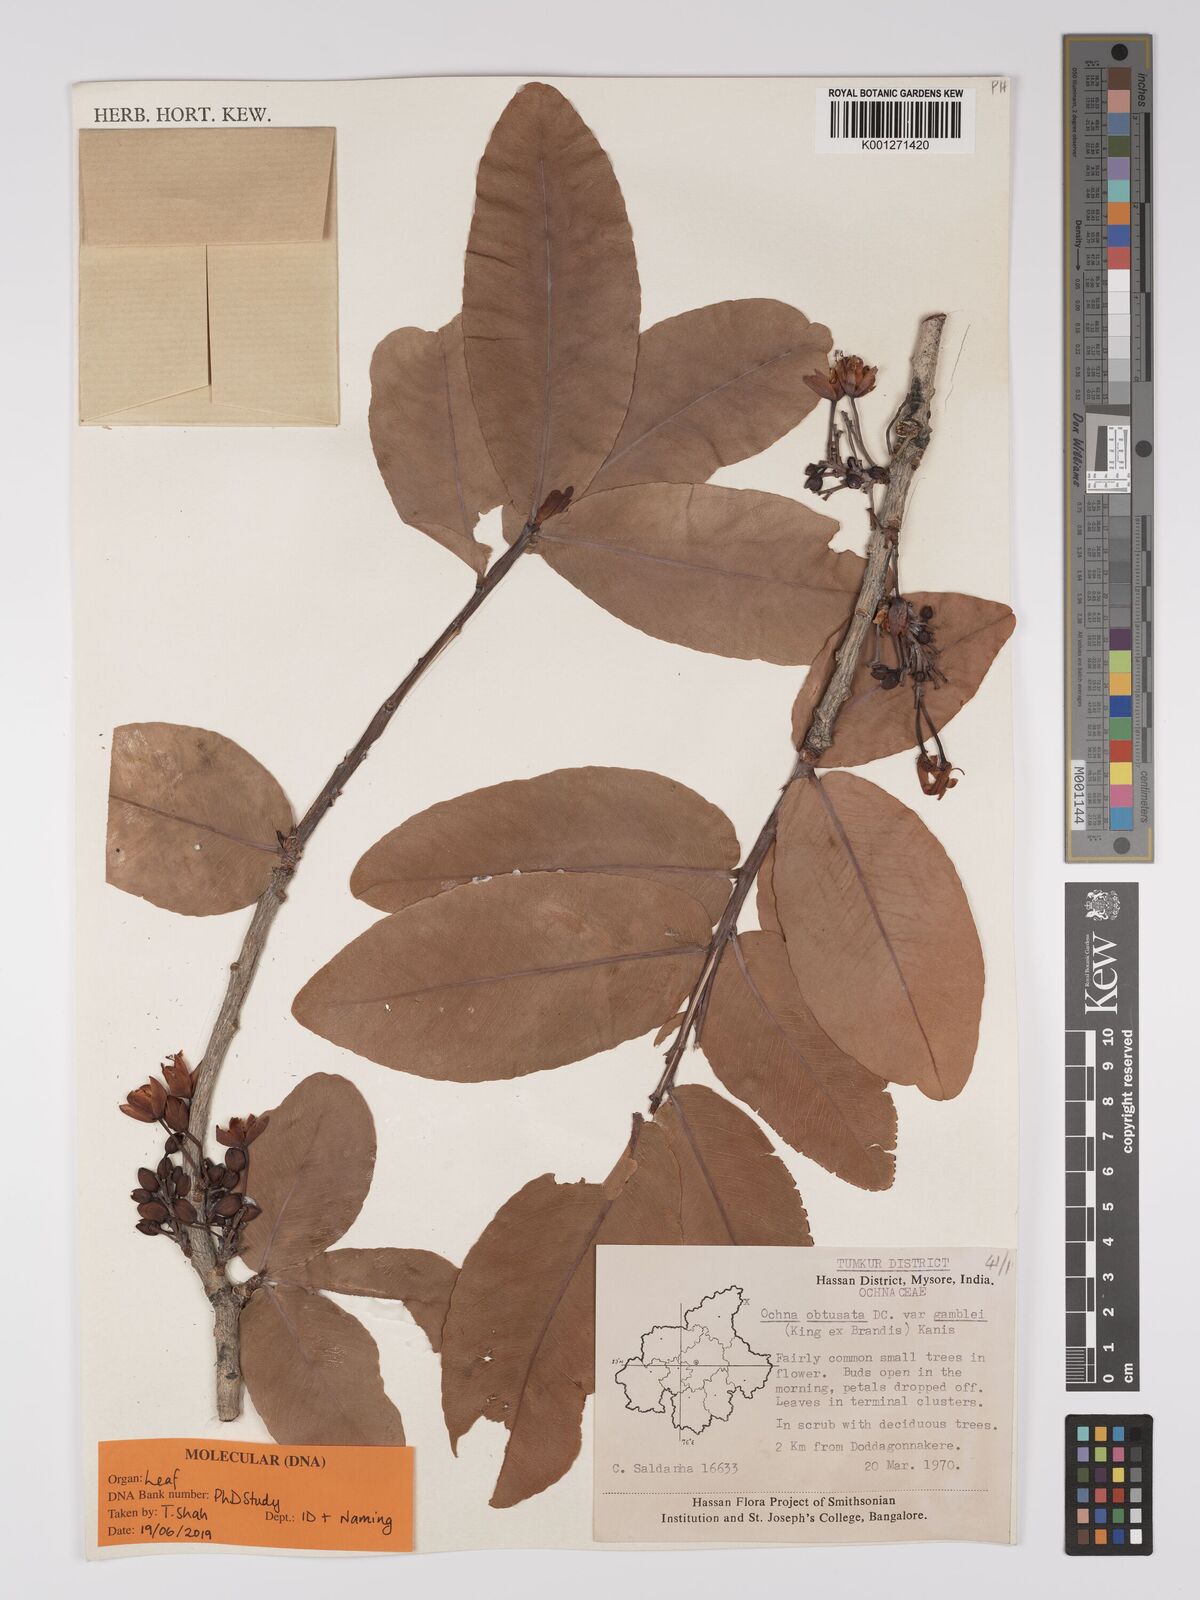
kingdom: Plantae
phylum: Tracheophyta
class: Magnoliopsida
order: Malpighiales
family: Ochnaceae
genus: Ochna
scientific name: Ochna obtusata
